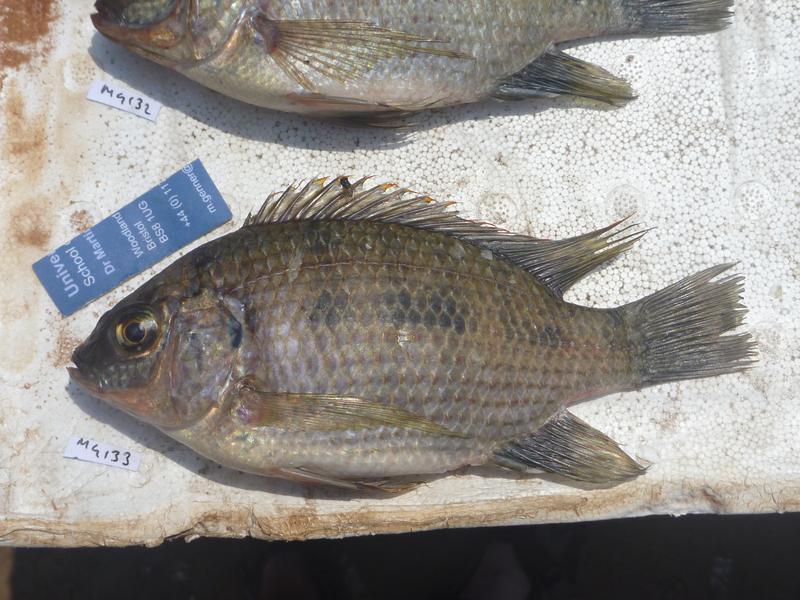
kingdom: Animalia
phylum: Chordata
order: Perciformes
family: Cichlidae
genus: Oreochromis
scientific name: Oreochromis upembae
